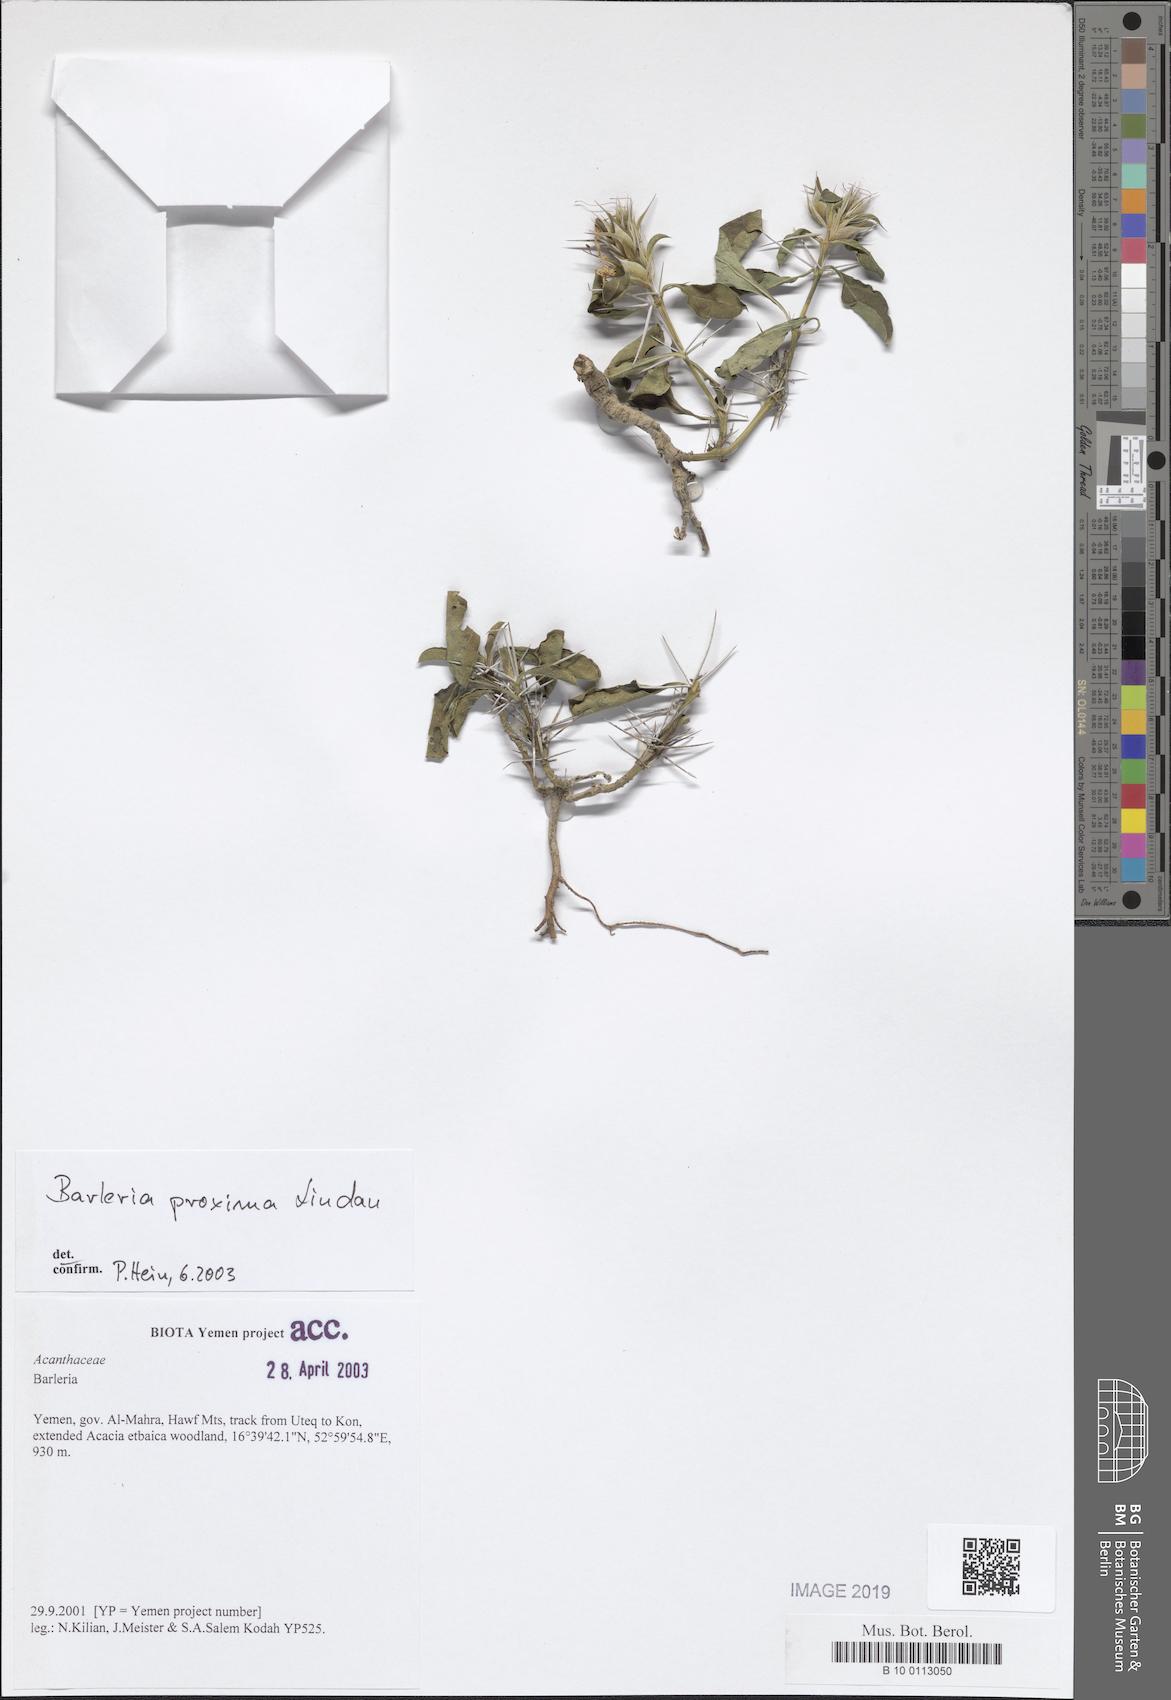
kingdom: Plantae
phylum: Tracheophyta
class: Magnoliopsida
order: Lamiales
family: Acanthaceae
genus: Barleria
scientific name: Barleria proxima
